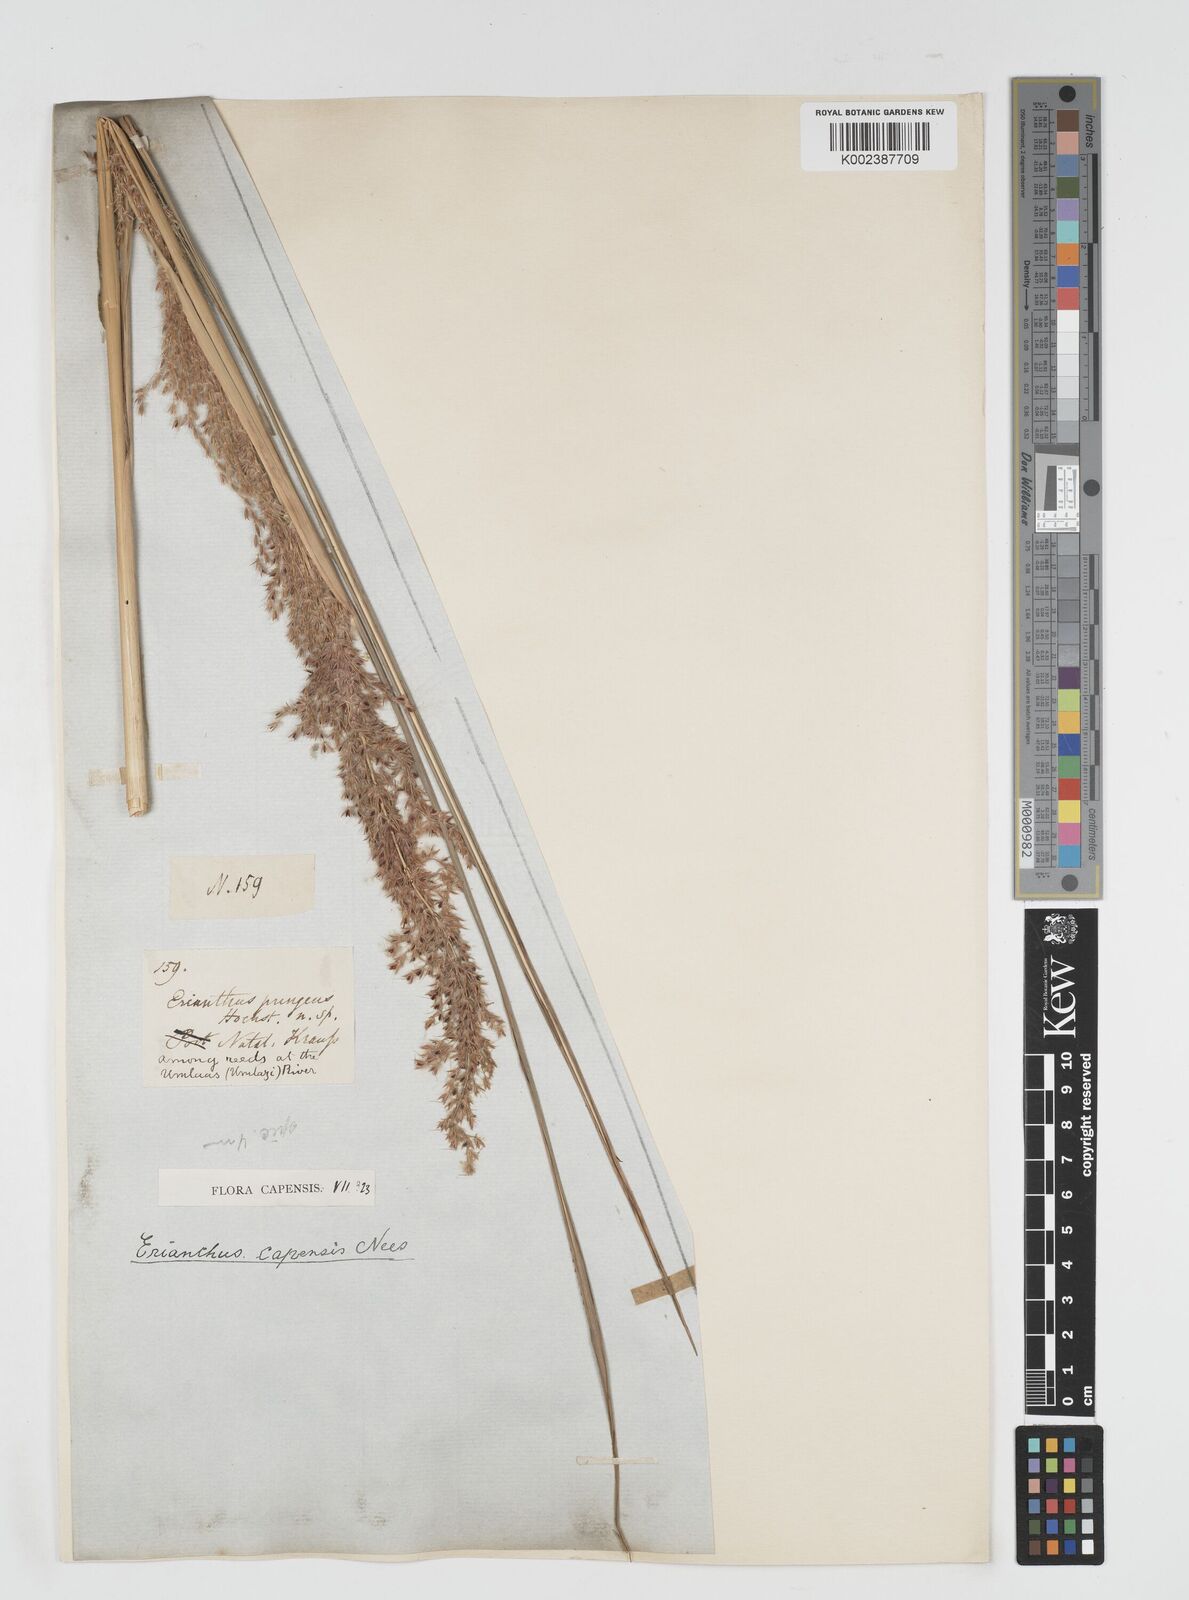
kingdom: Plantae
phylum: Tracheophyta
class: Liliopsida
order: Poales
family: Poaceae
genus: Miscanthus
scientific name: Miscanthus ecklonii
